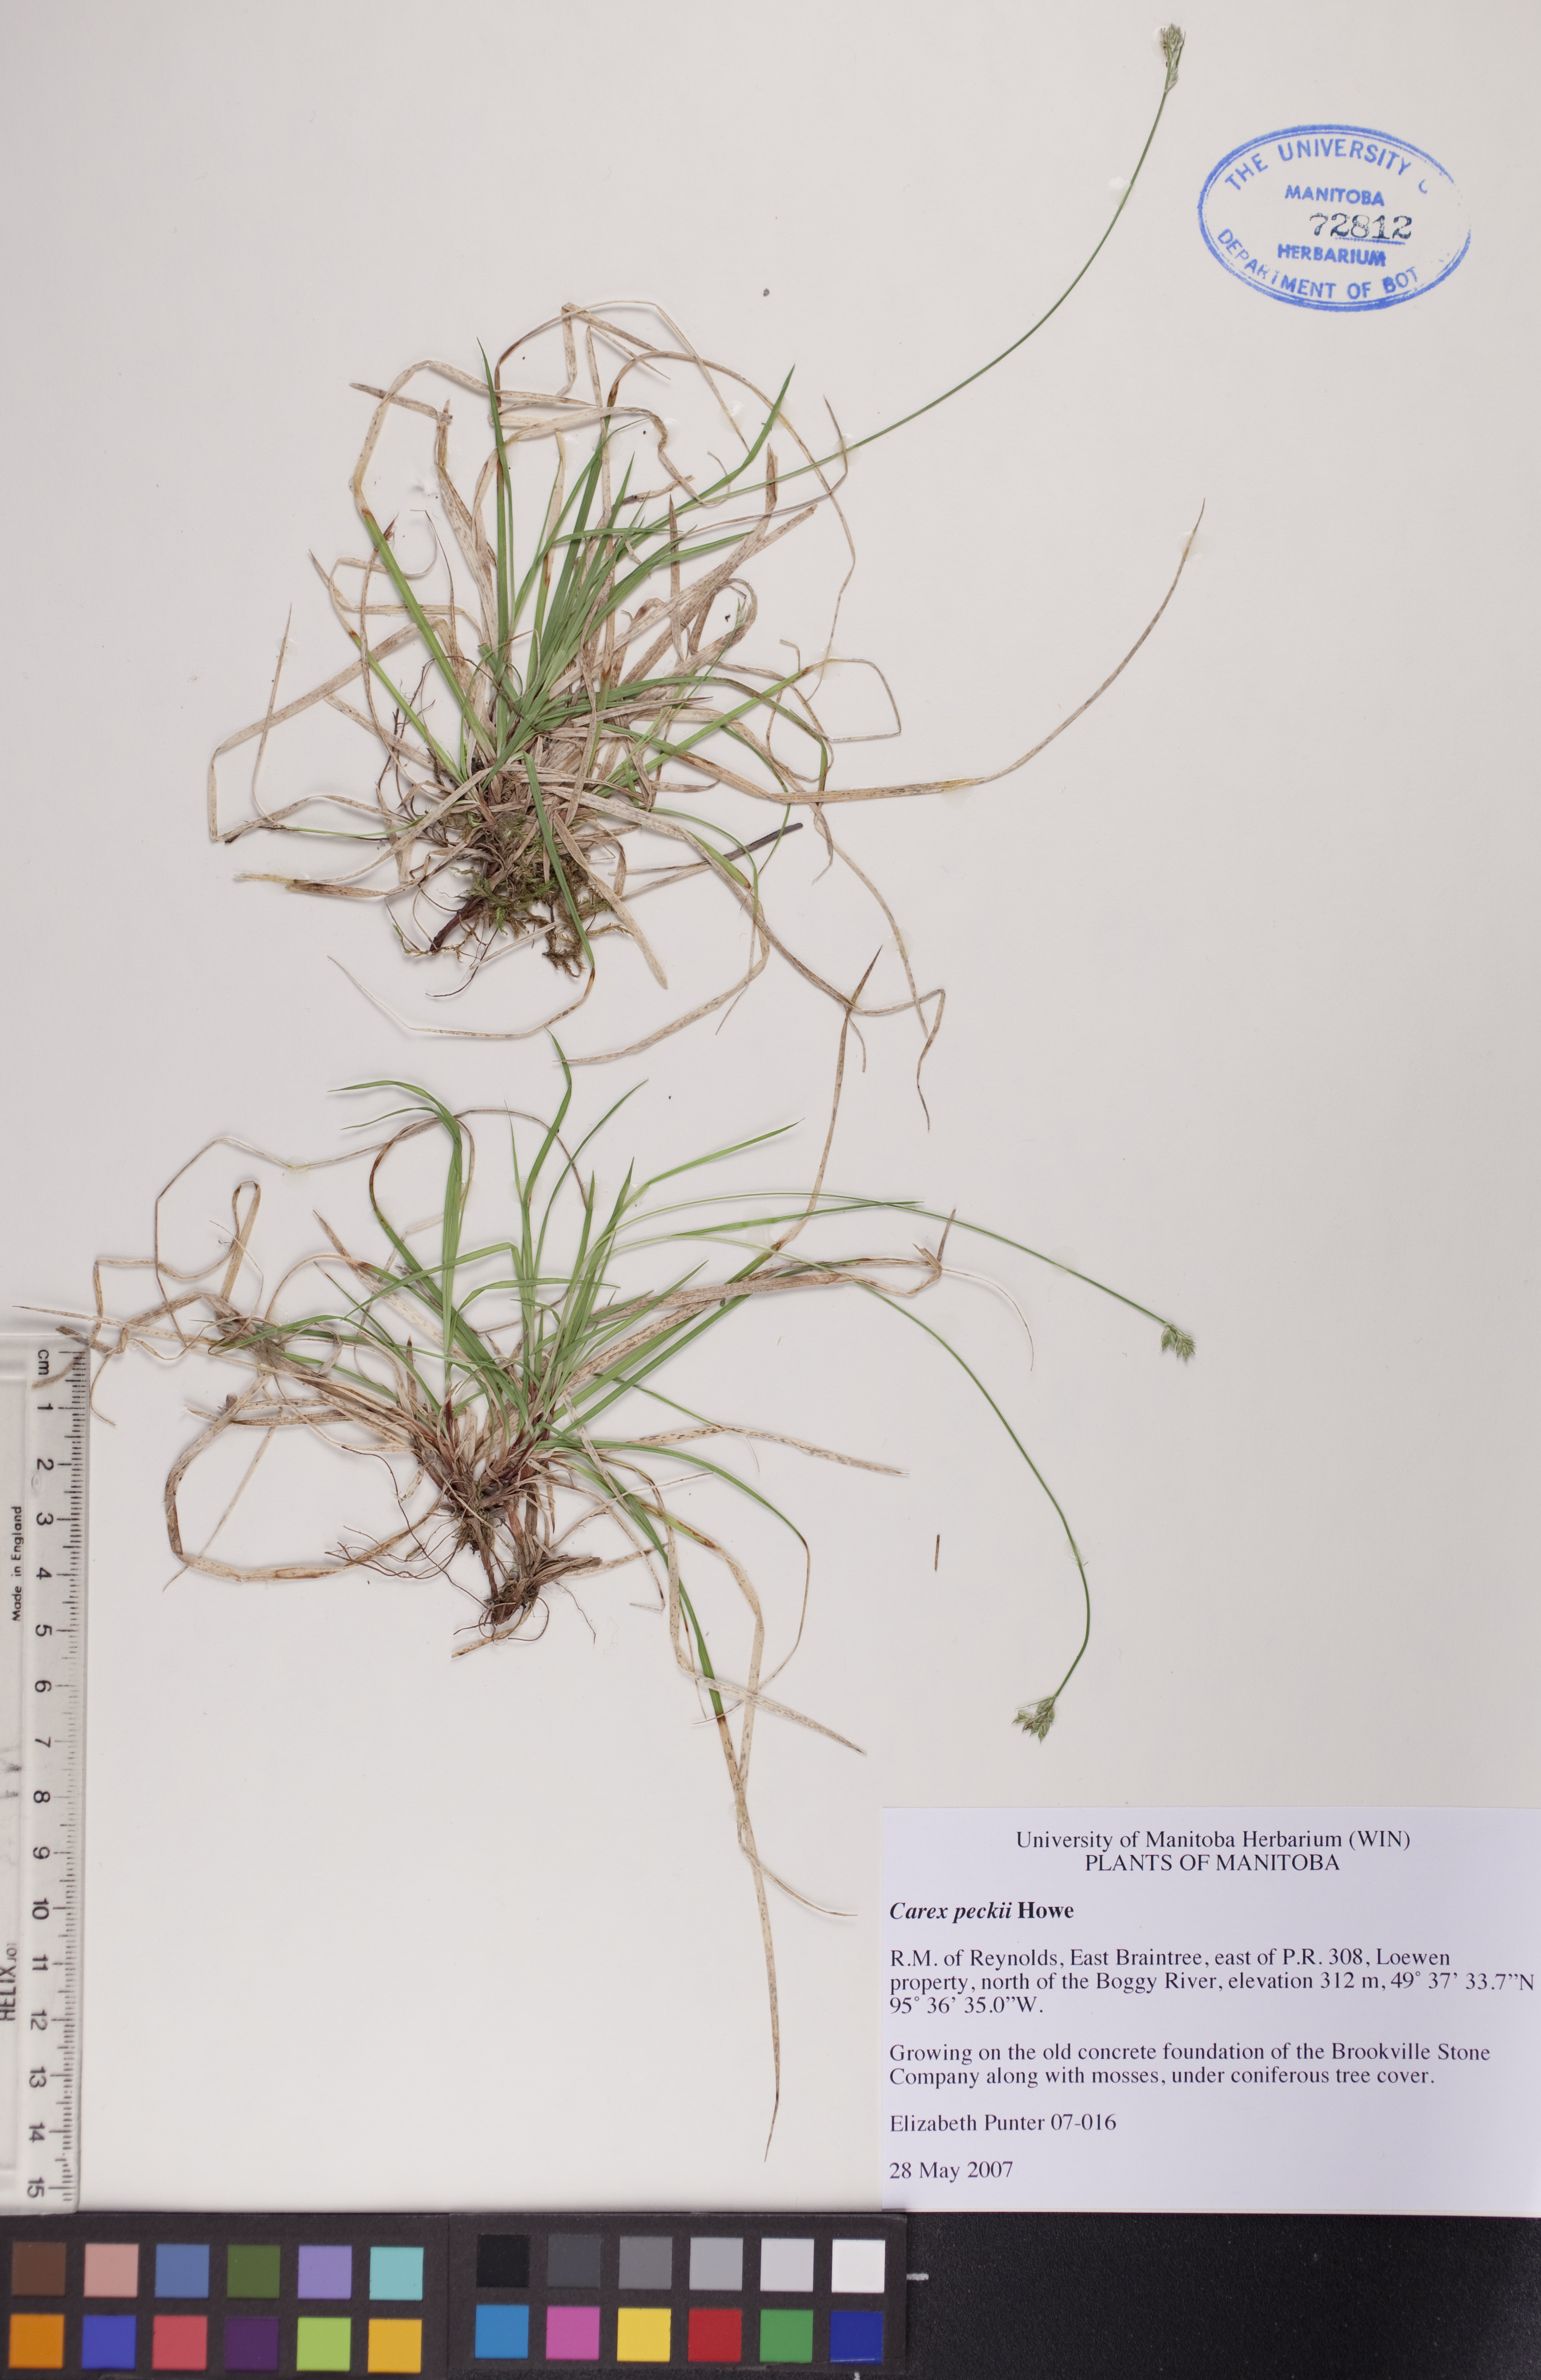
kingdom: Plantae
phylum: Tracheophyta
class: Liliopsida
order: Poales
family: Cyperaceae
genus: Carex
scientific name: Carex peckii
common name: Peck's oak sedge
